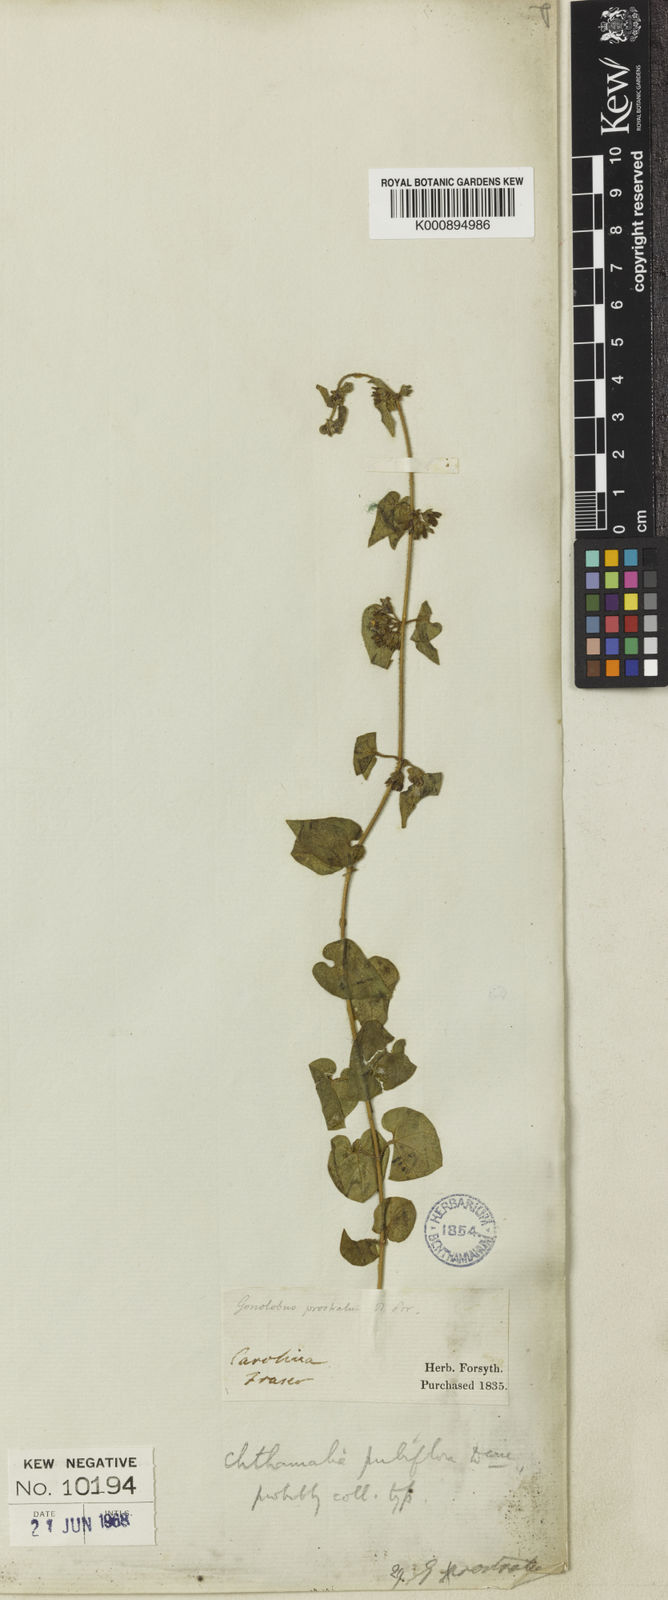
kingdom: Plantae
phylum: Tracheophyta
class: Magnoliopsida
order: Gentianales
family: Apocynaceae
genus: Chthamalia
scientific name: Chthamalia pubiflora
